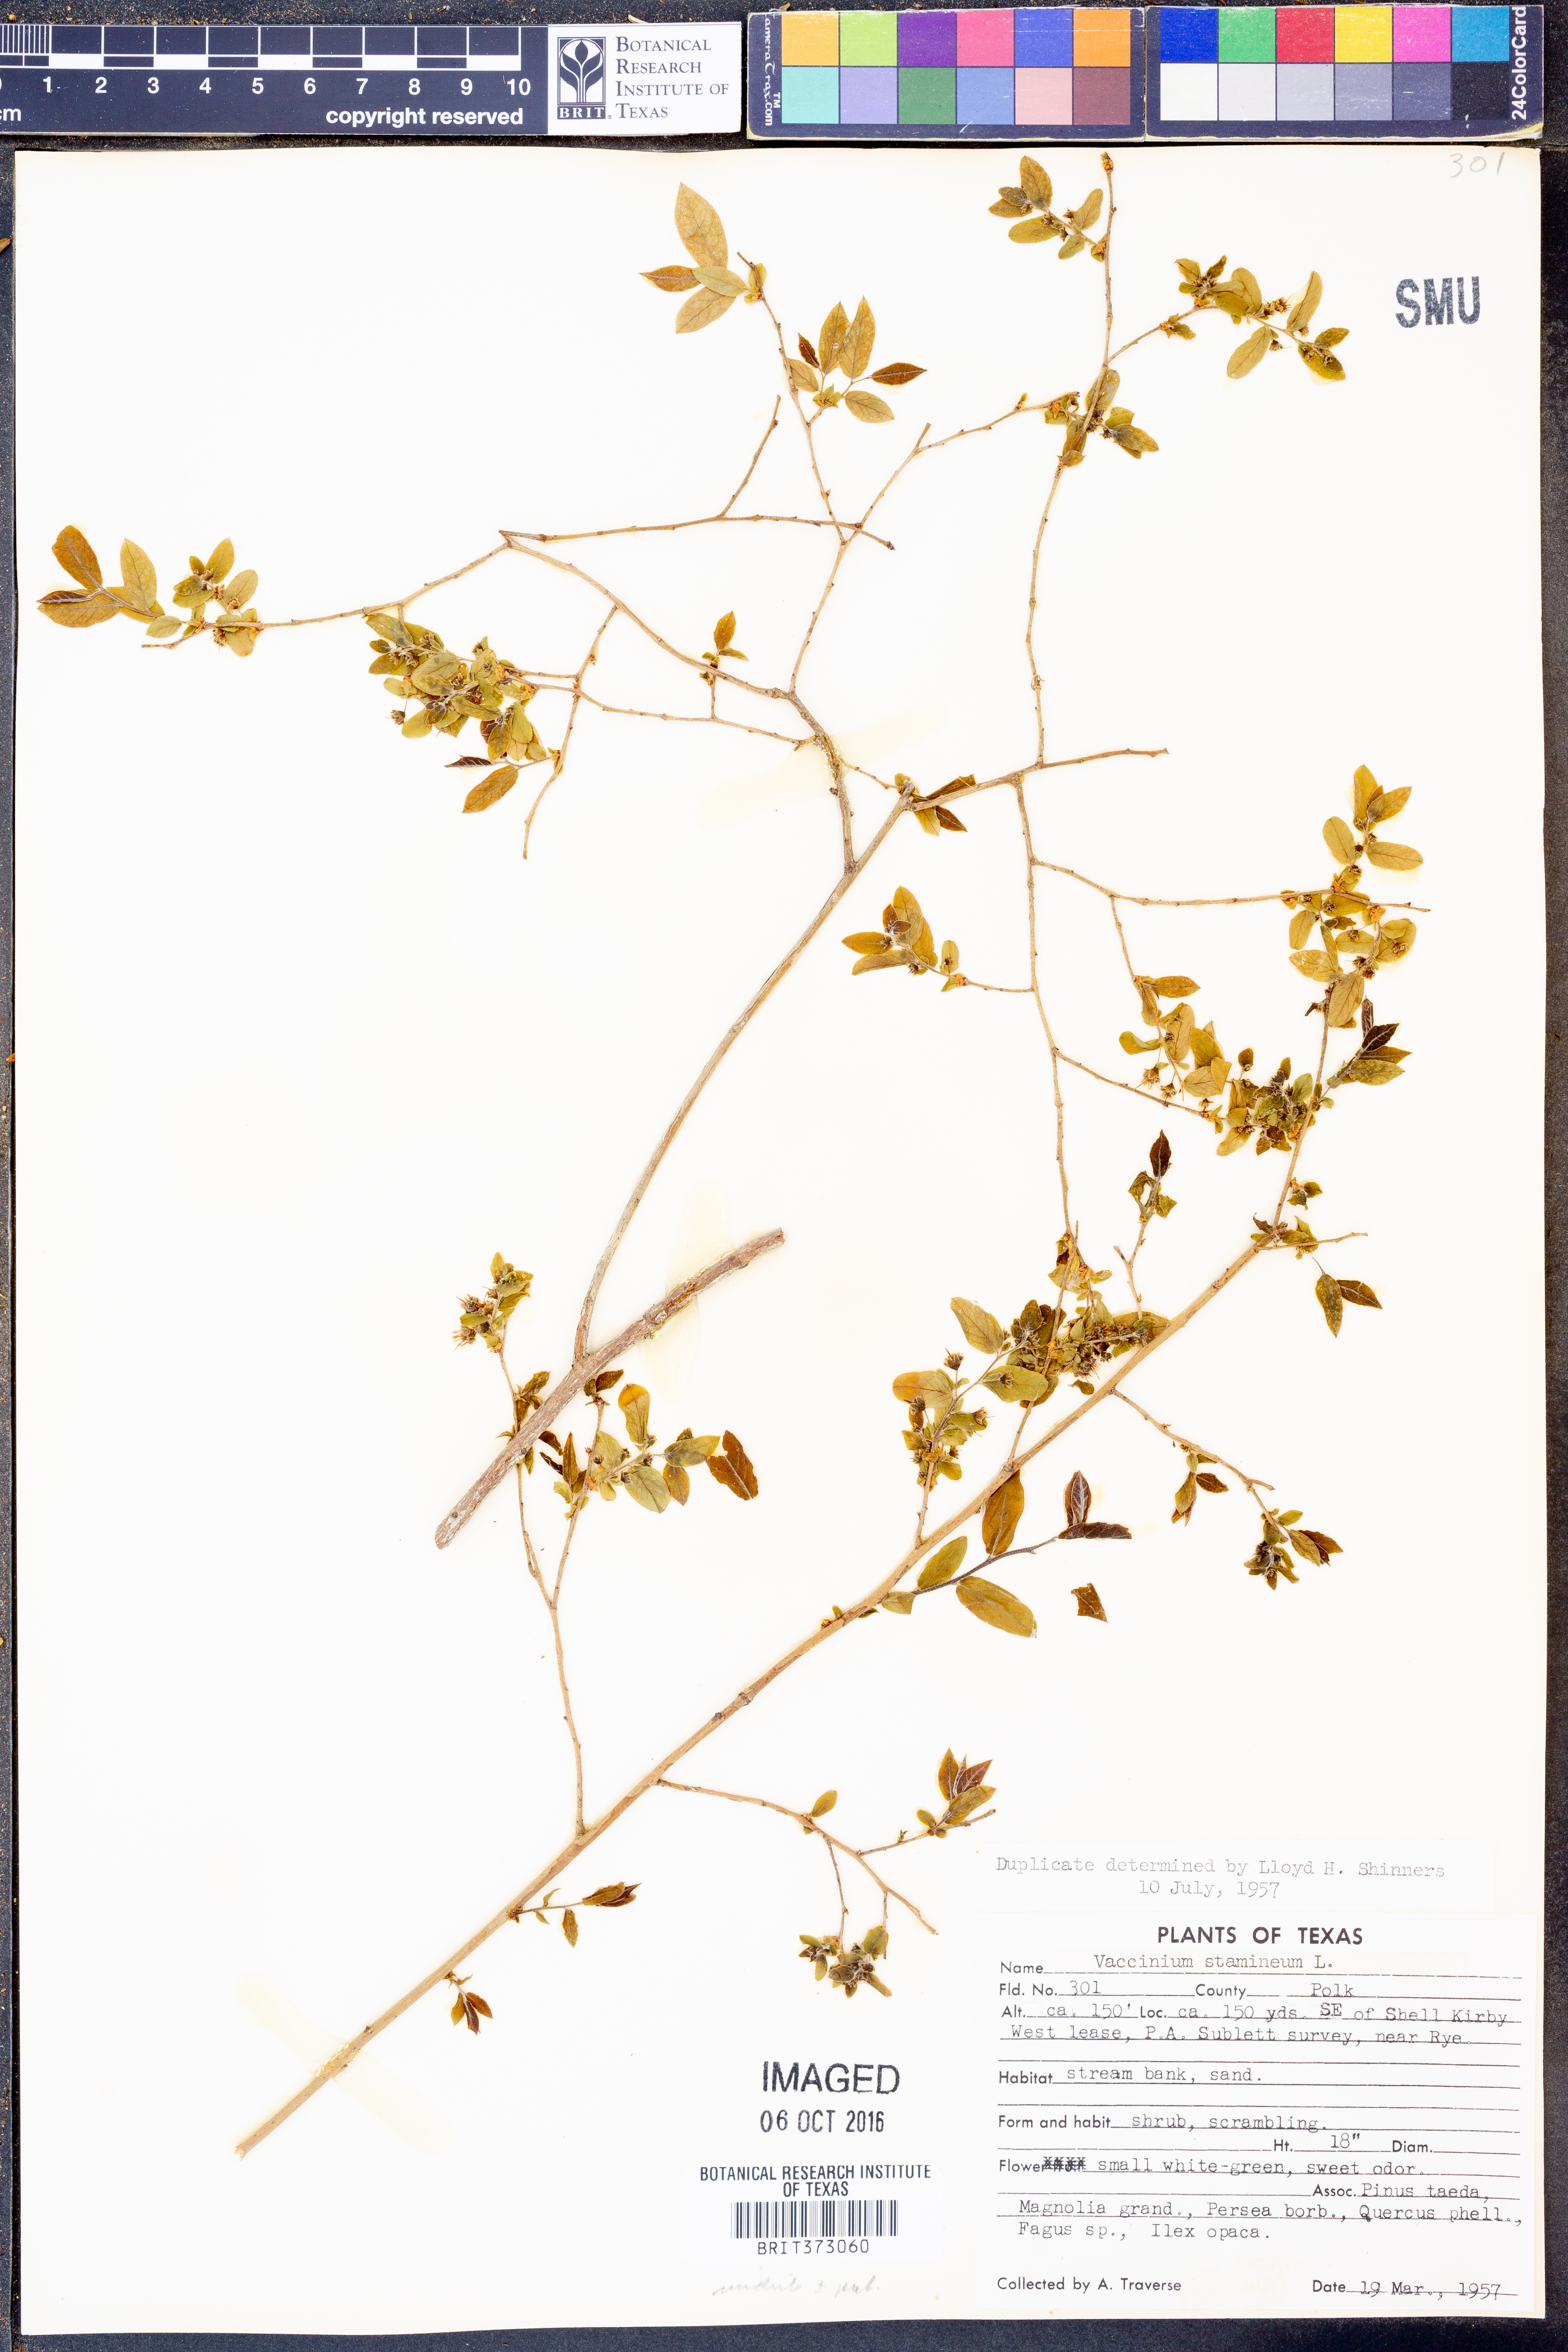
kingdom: Plantae
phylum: Tracheophyta
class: Magnoliopsida
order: Ericales
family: Ericaceae
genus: Vaccinium
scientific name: Vaccinium stamineum
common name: Deerberry
